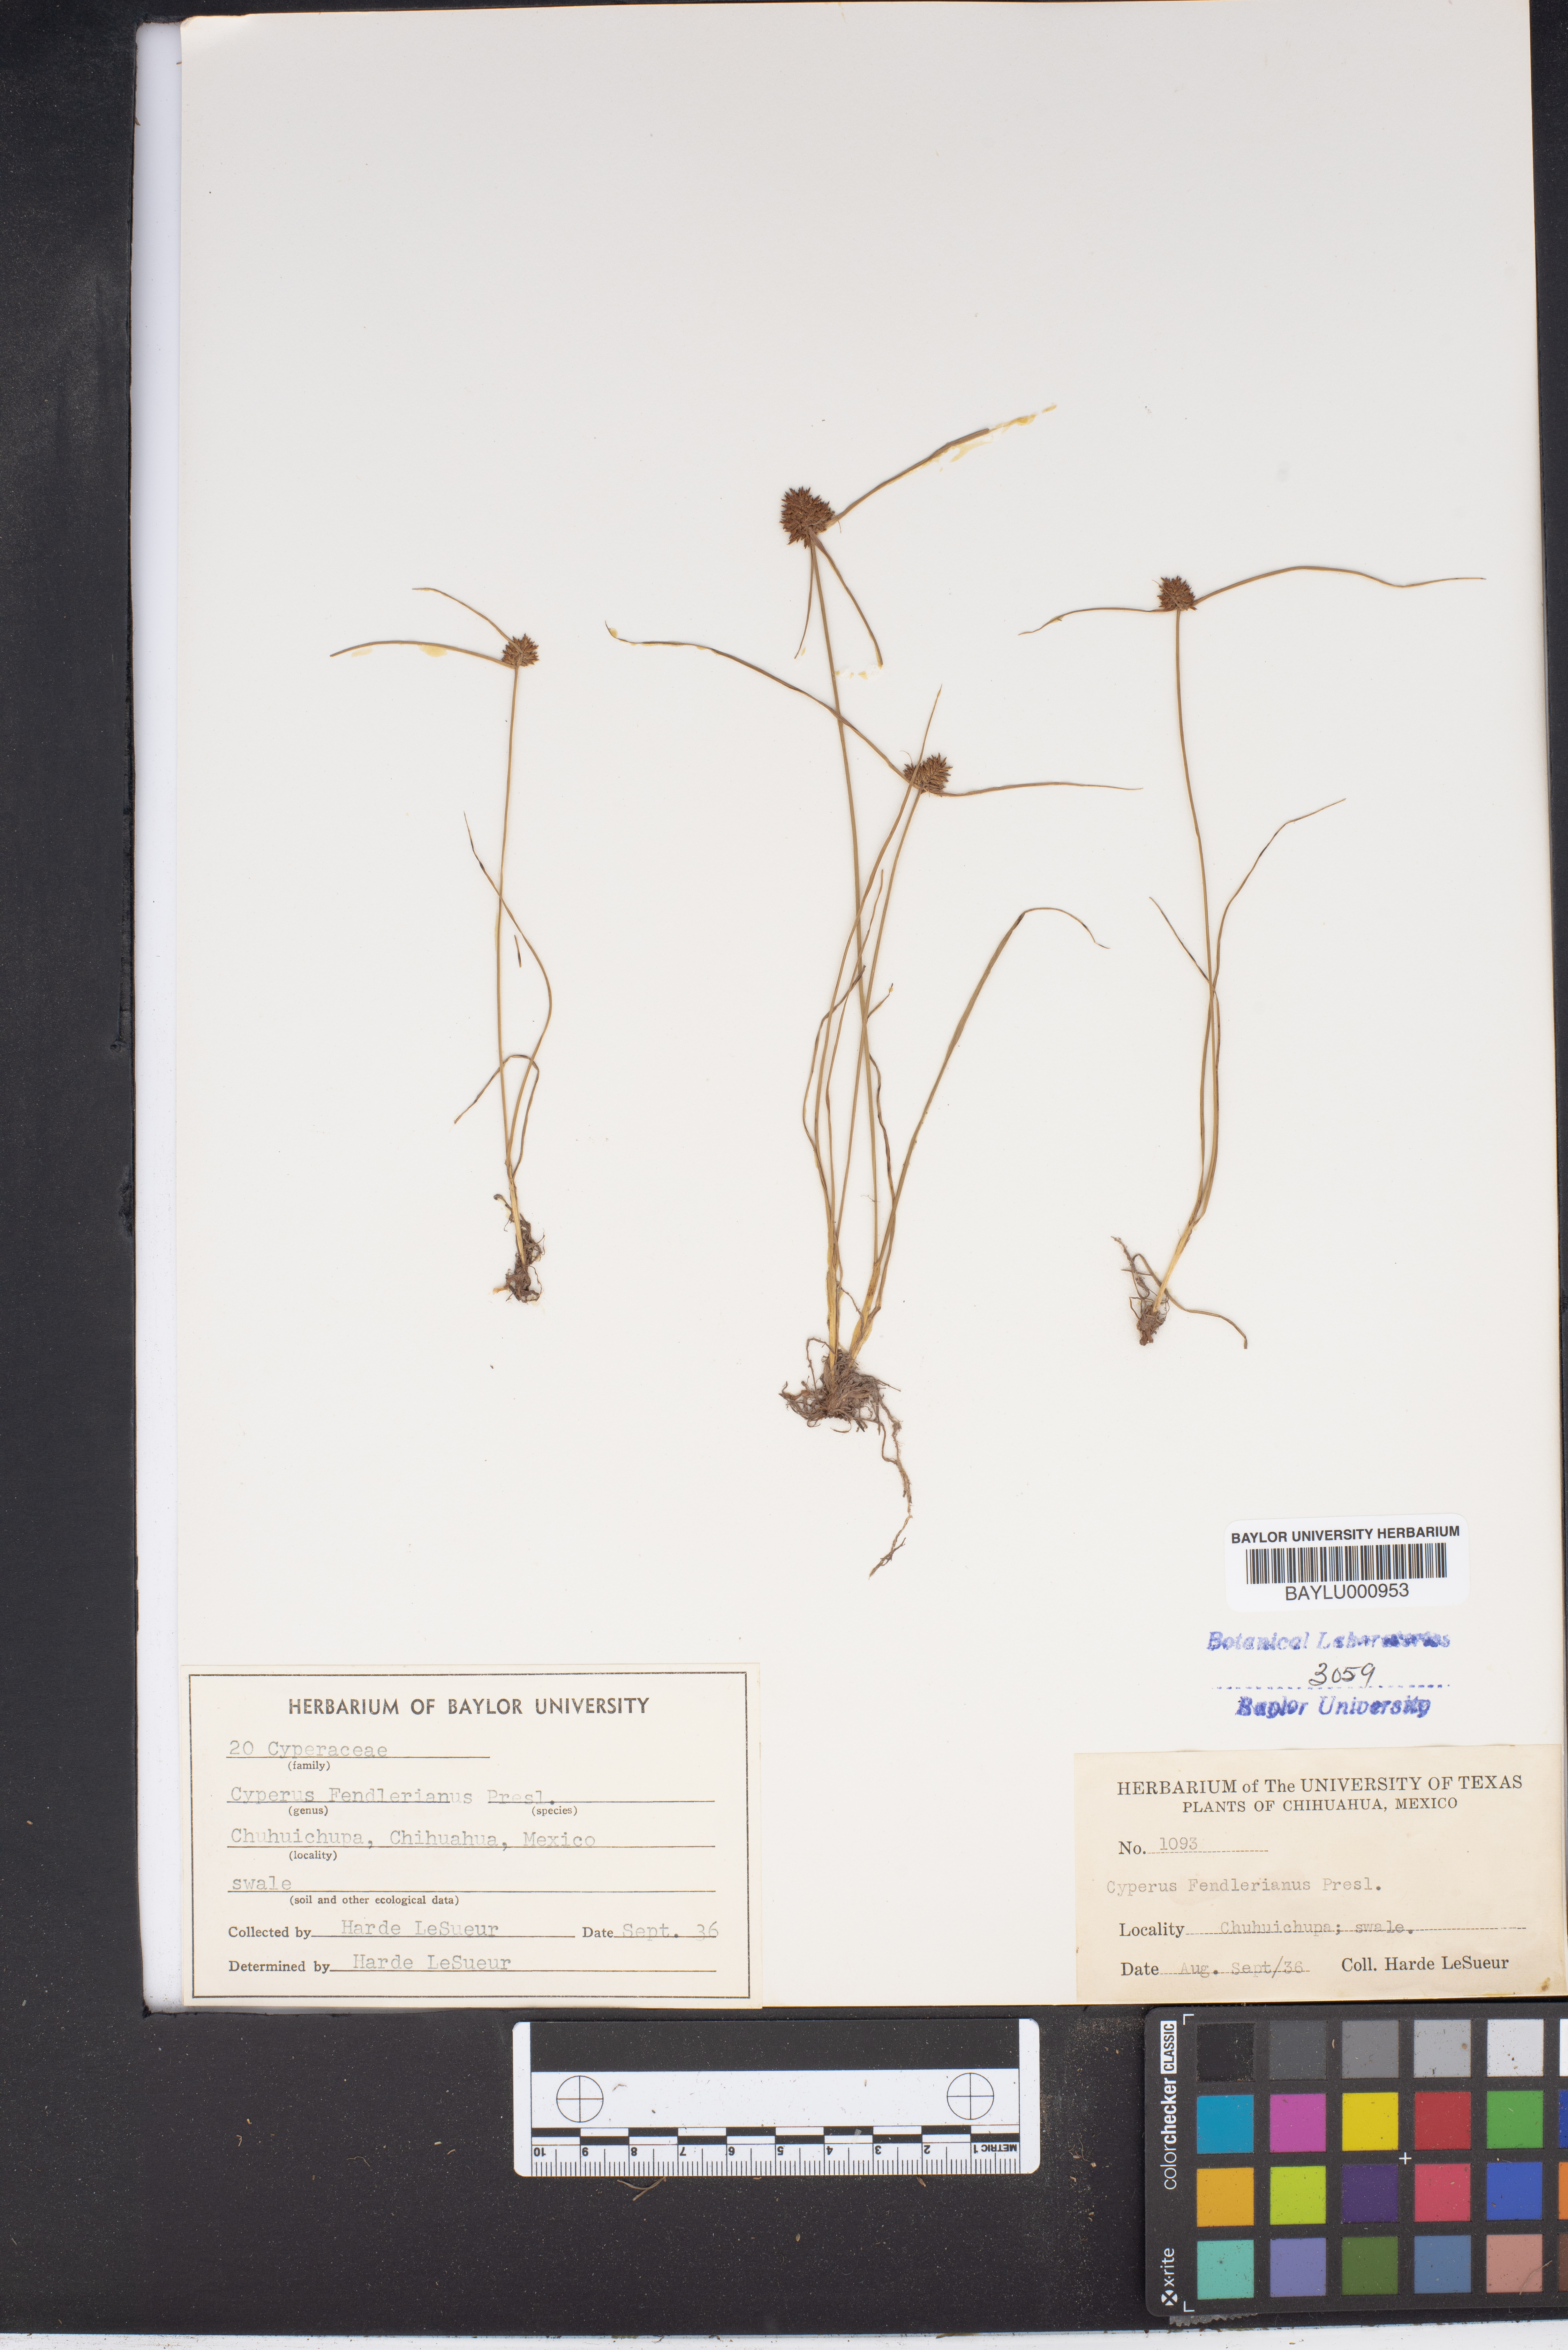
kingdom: Plantae
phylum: Tracheophyta
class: Liliopsida
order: Poales
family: Cyperaceae
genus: Cyperus
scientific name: Cyperus fendlerianus
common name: Fendler flat sedge
